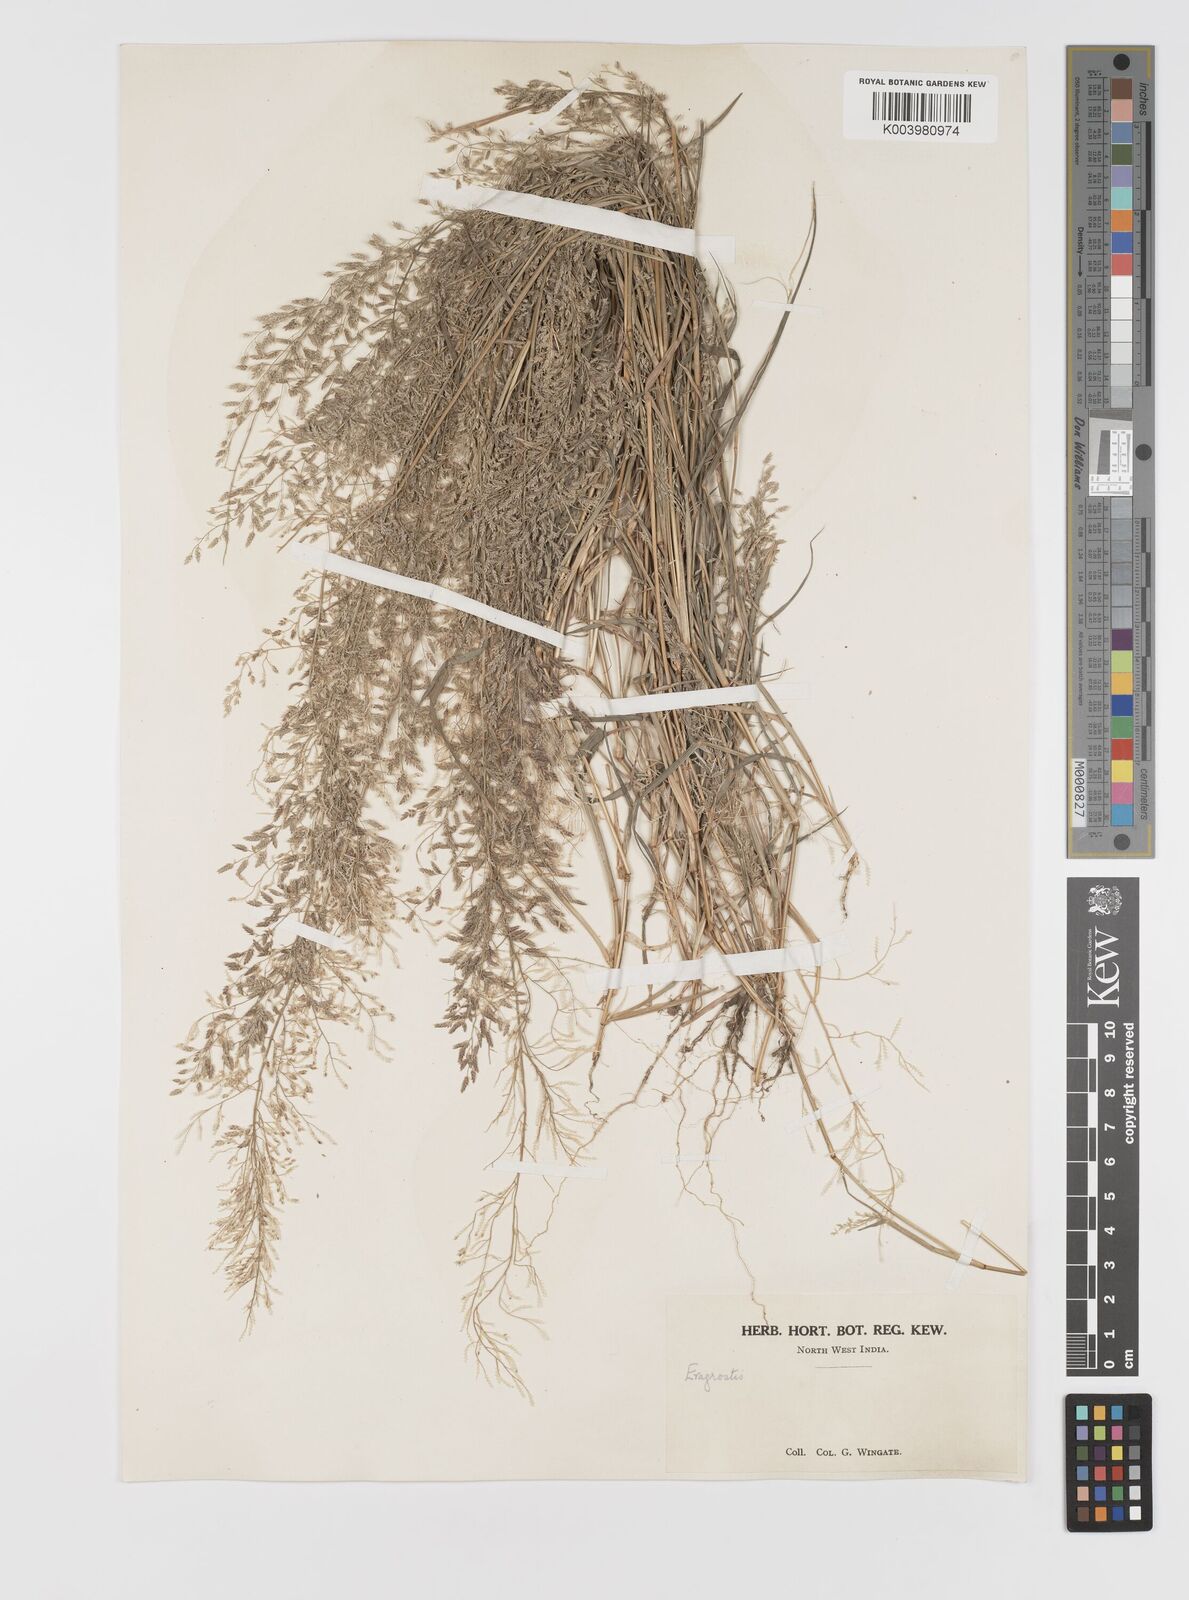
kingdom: Plantae
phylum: Tracheophyta
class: Liliopsida
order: Poales
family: Poaceae
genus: Eragrostis
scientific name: Eragrostis minor
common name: Small love-grass
